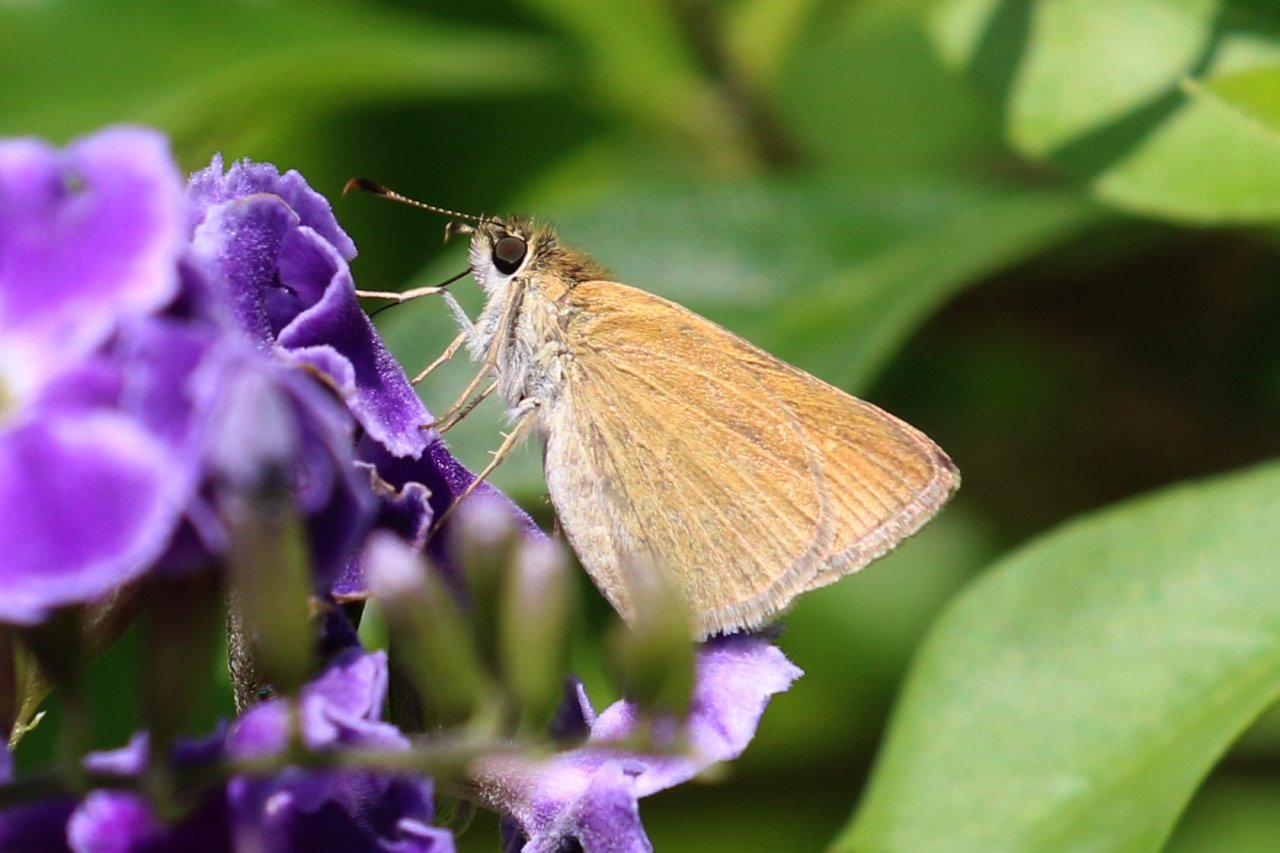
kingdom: Animalia
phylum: Arthropoda
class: Insecta
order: Lepidoptera
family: Hesperiidae
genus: Nastra
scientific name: Nastra julia
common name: Julia's Skipper
